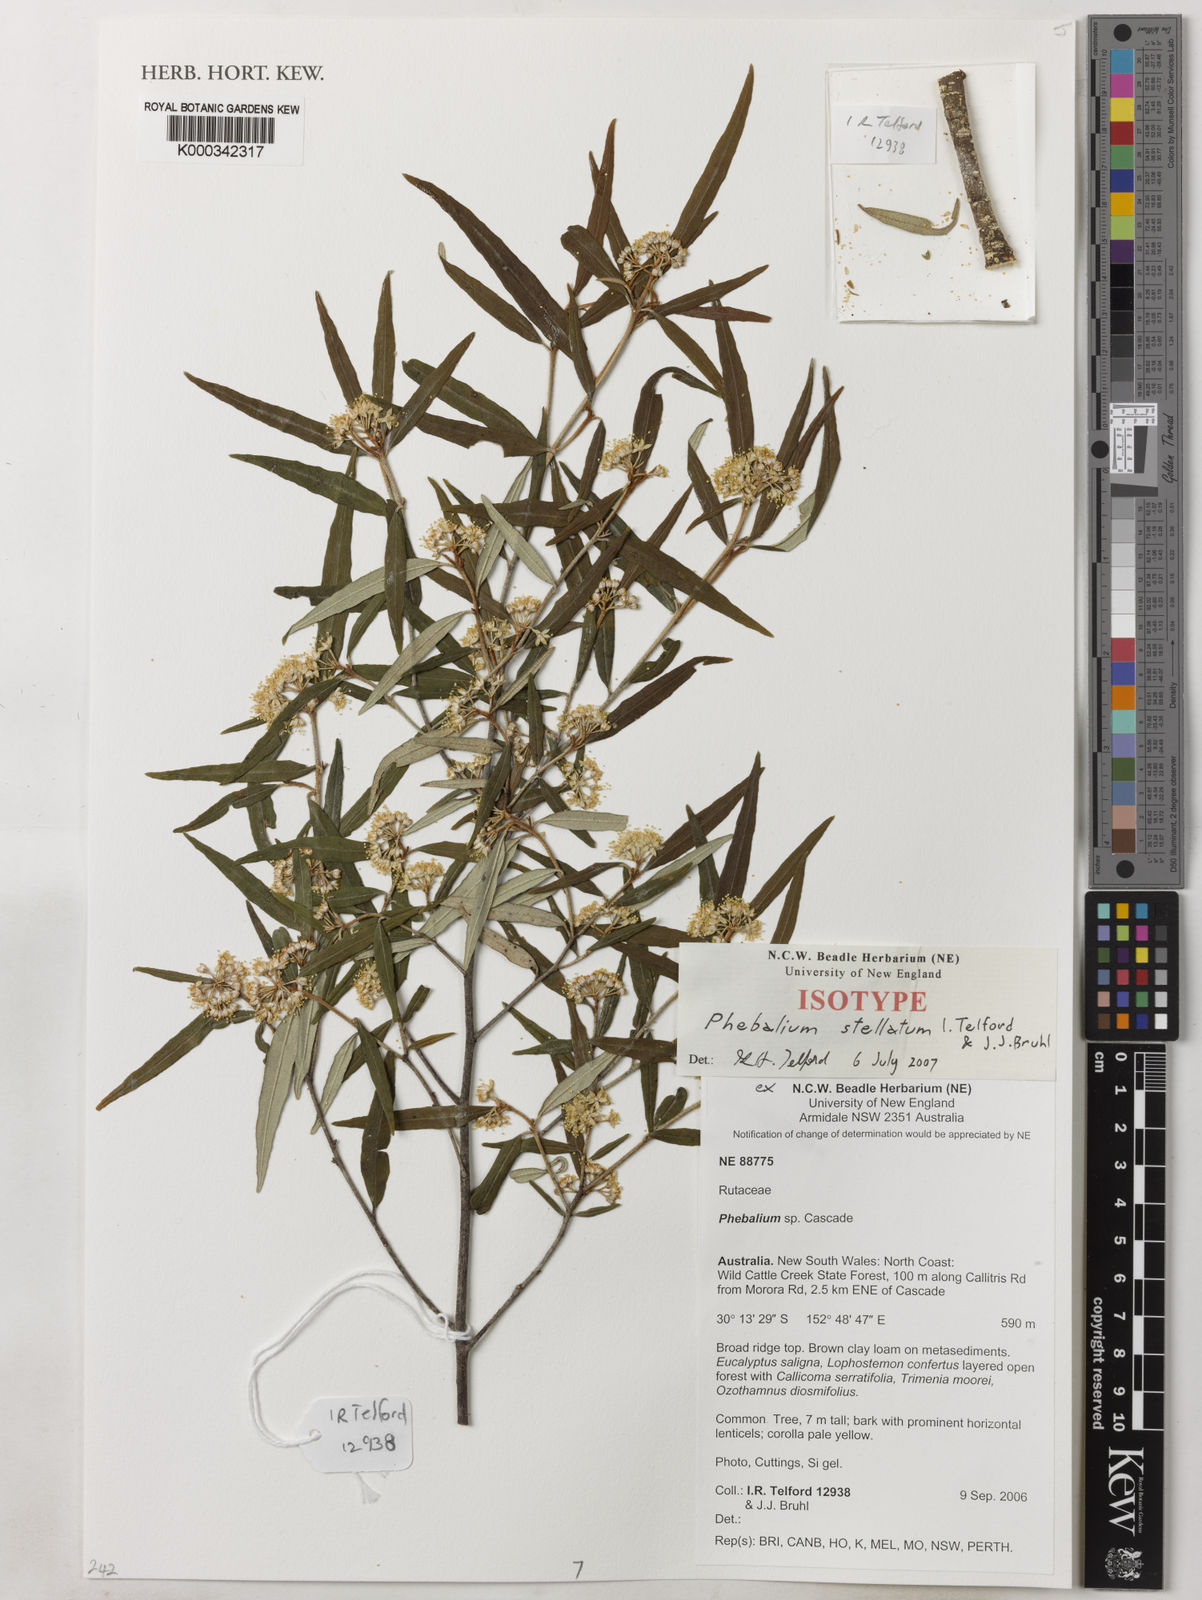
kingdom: Plantae
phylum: Tracheophyta
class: Magnoliopsida
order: Sapindales
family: Rutaceae
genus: Phebalium
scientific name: Phebalium
